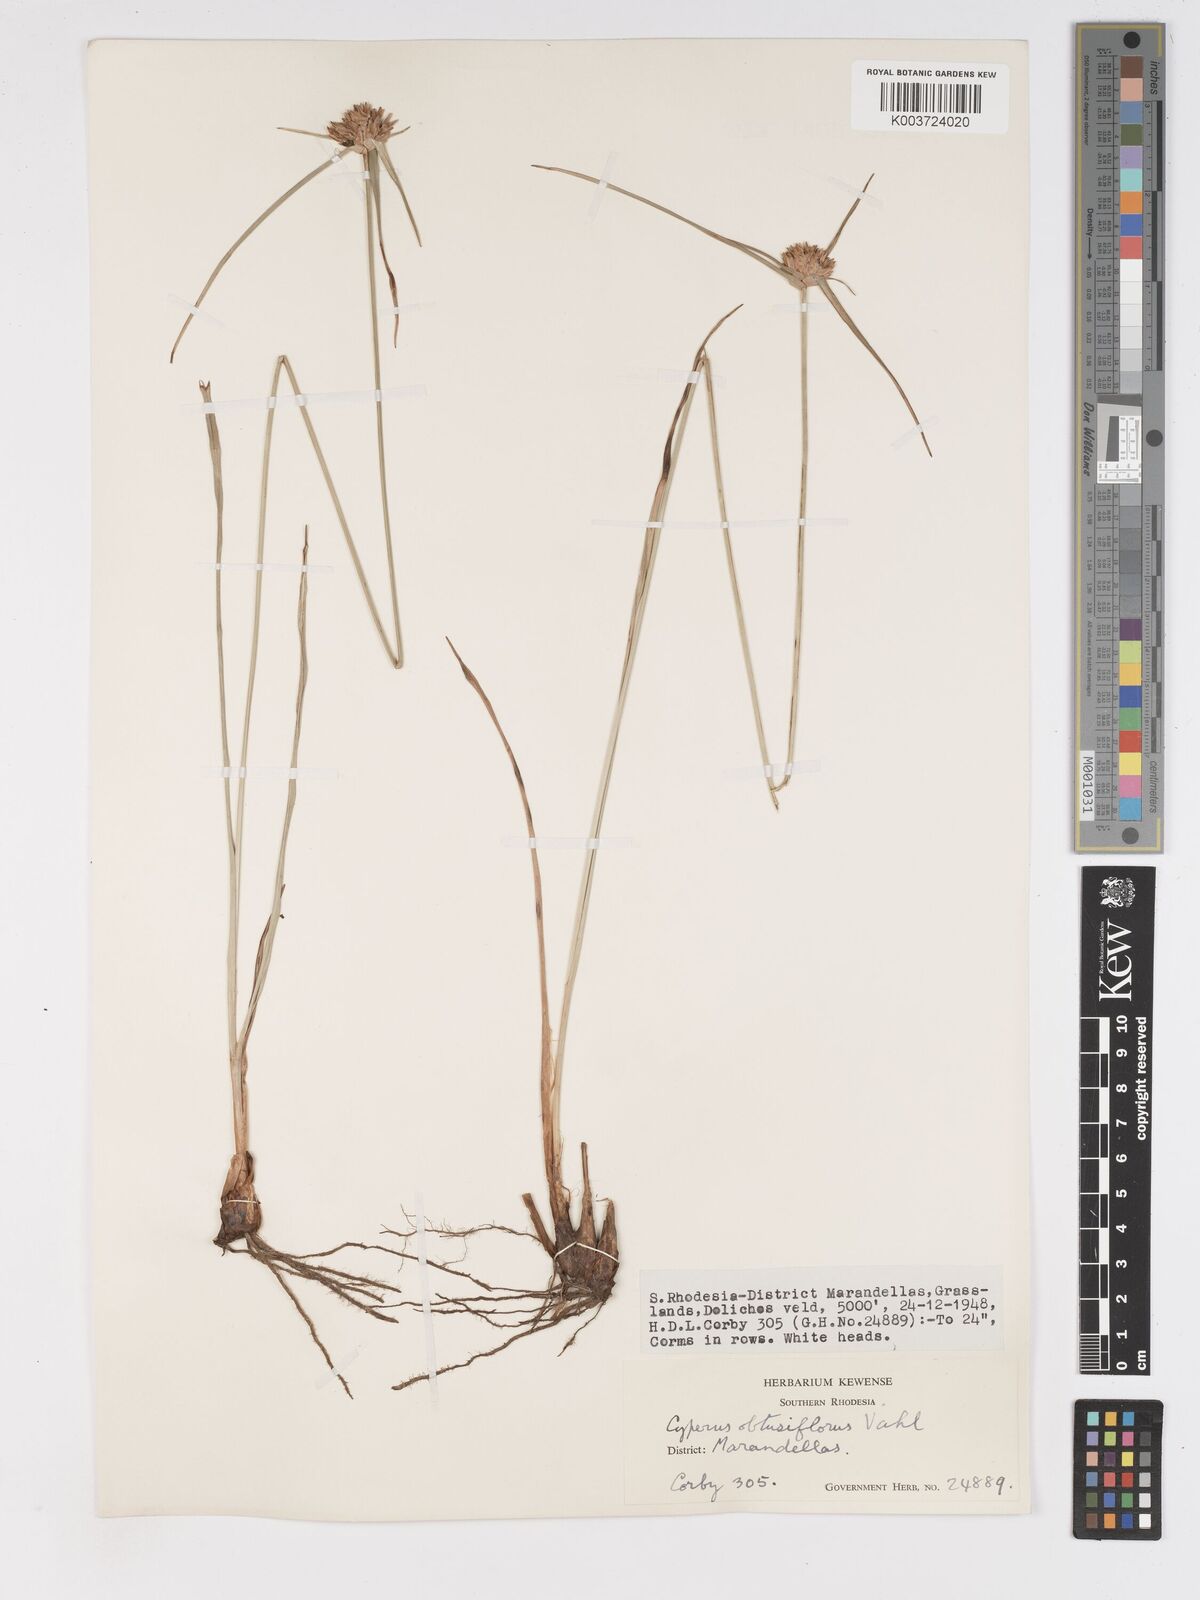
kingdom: Plantae
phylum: Tracheophyta
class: Liliopsida
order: Poales
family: Cyperaceae
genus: Cyperus
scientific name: Cyperus niveus
